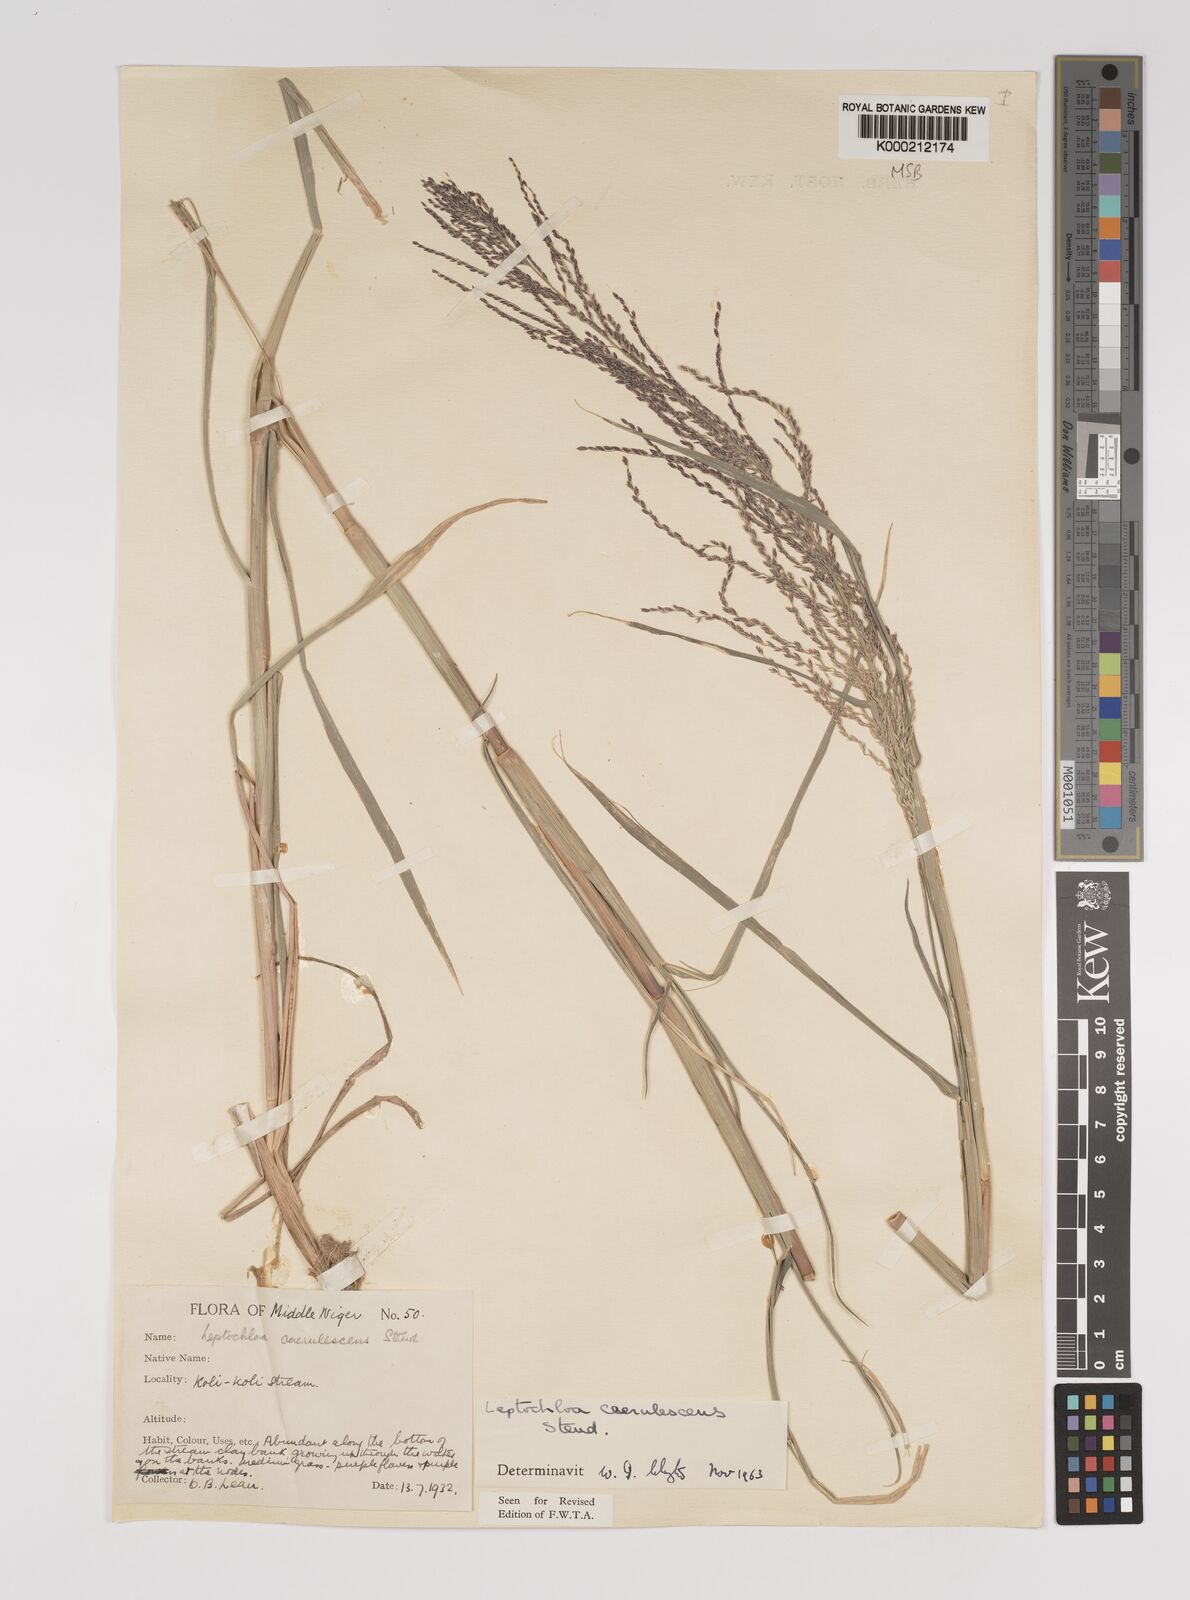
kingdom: Plantae
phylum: Tracheophyta
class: Liliopsida
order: Poales
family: Poaceae
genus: Leptochloa
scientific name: Leptochloa
